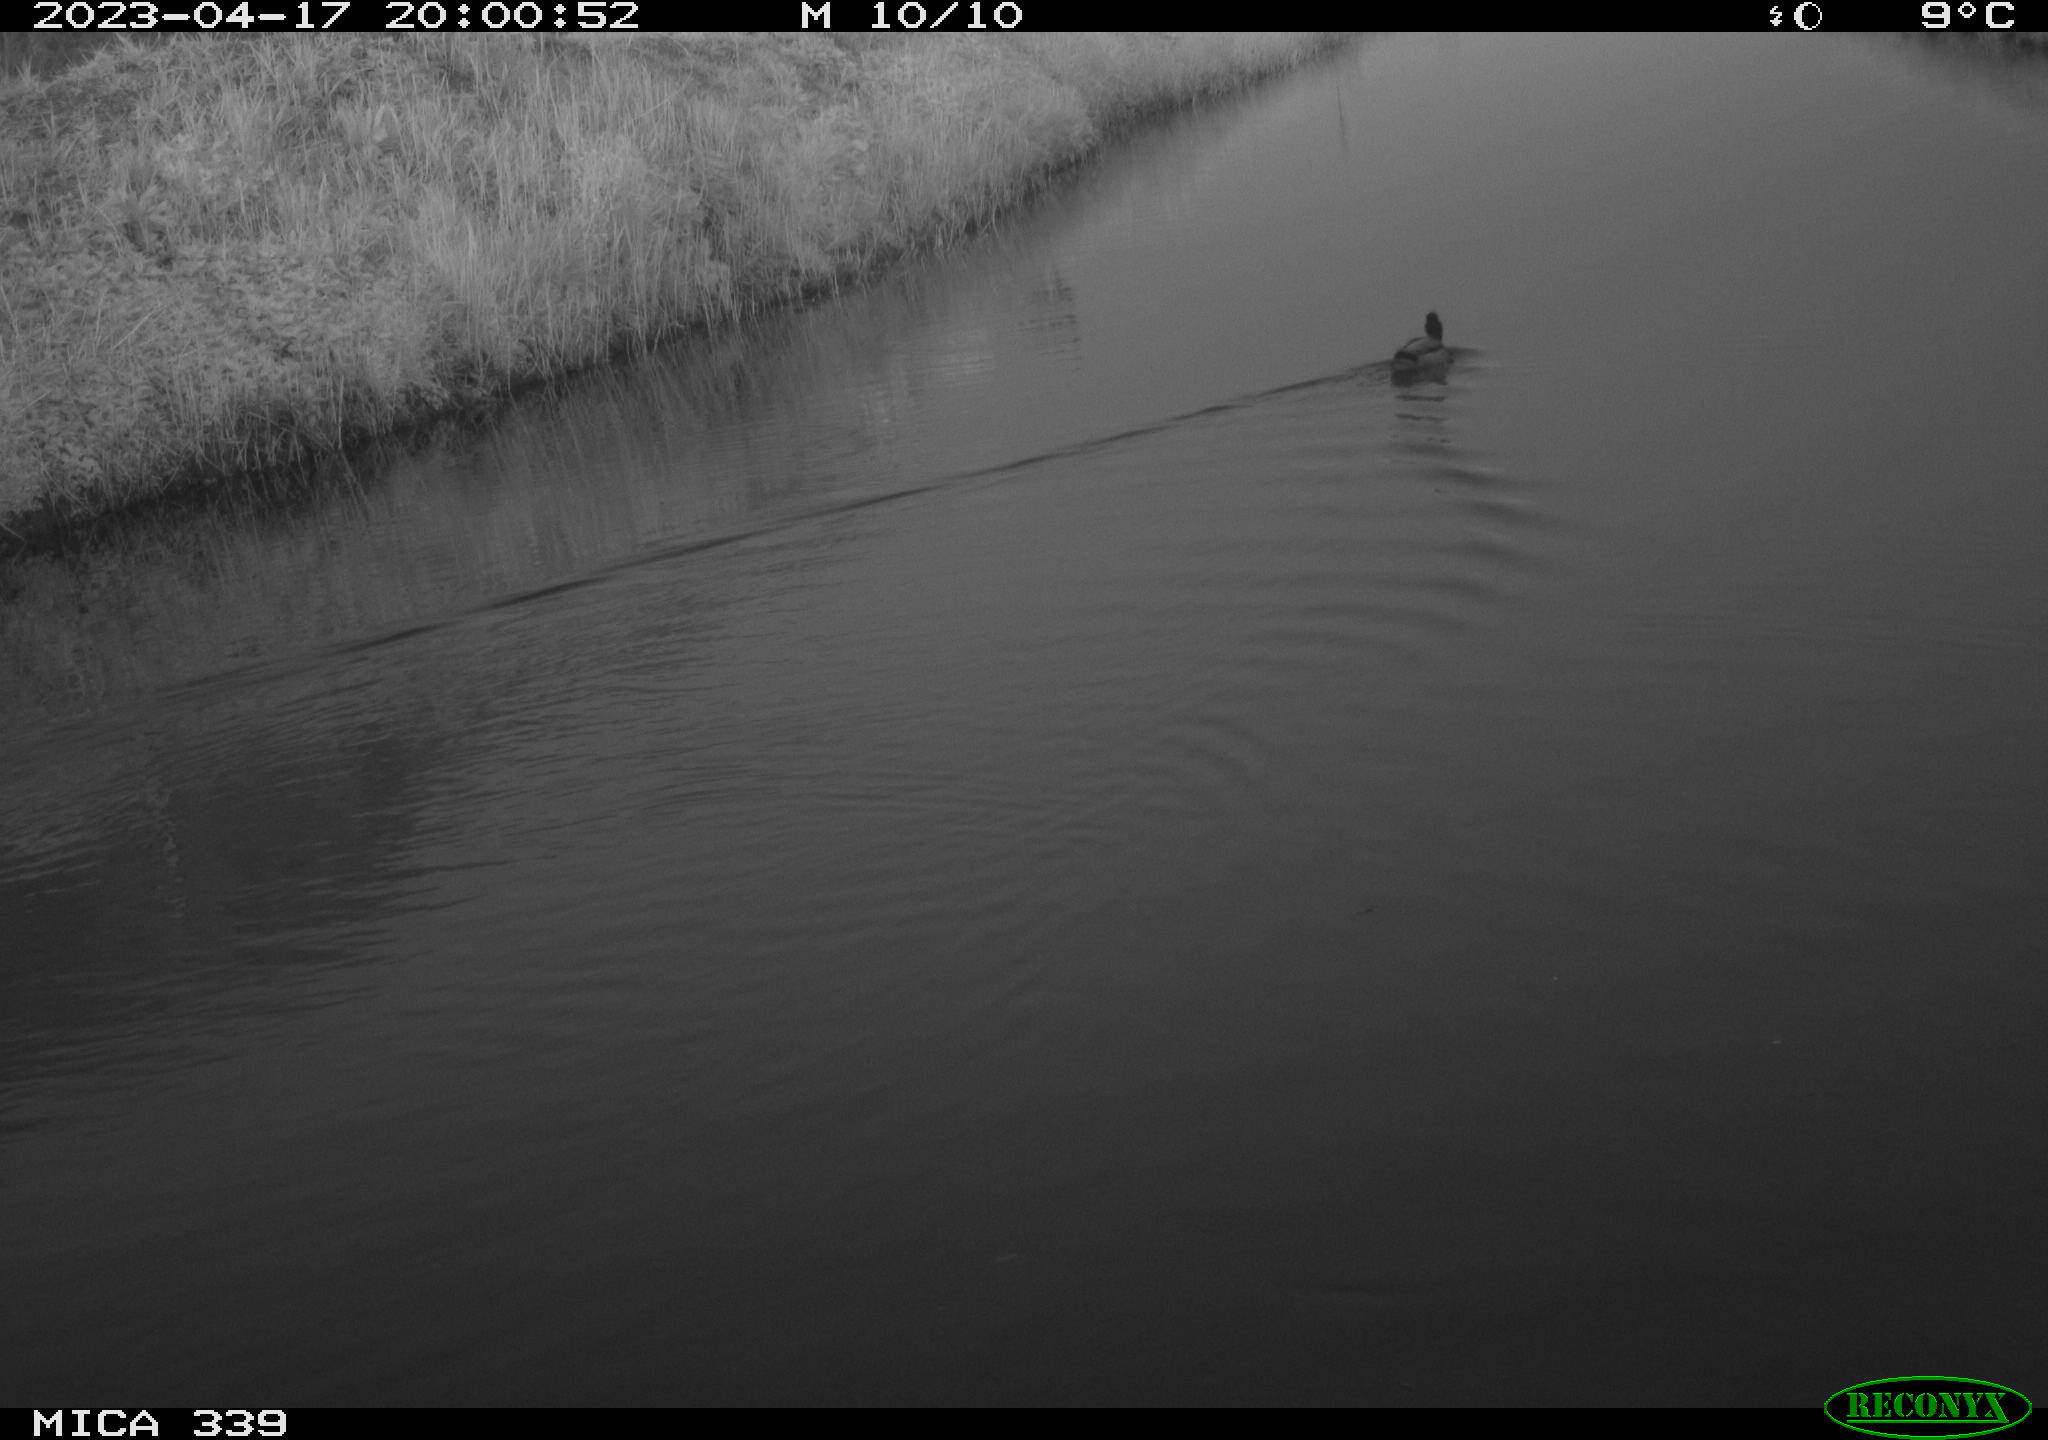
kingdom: Animalia
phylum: Chordata
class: Aves
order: Anseriformes
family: Anatidae
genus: Anas
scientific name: Anas
